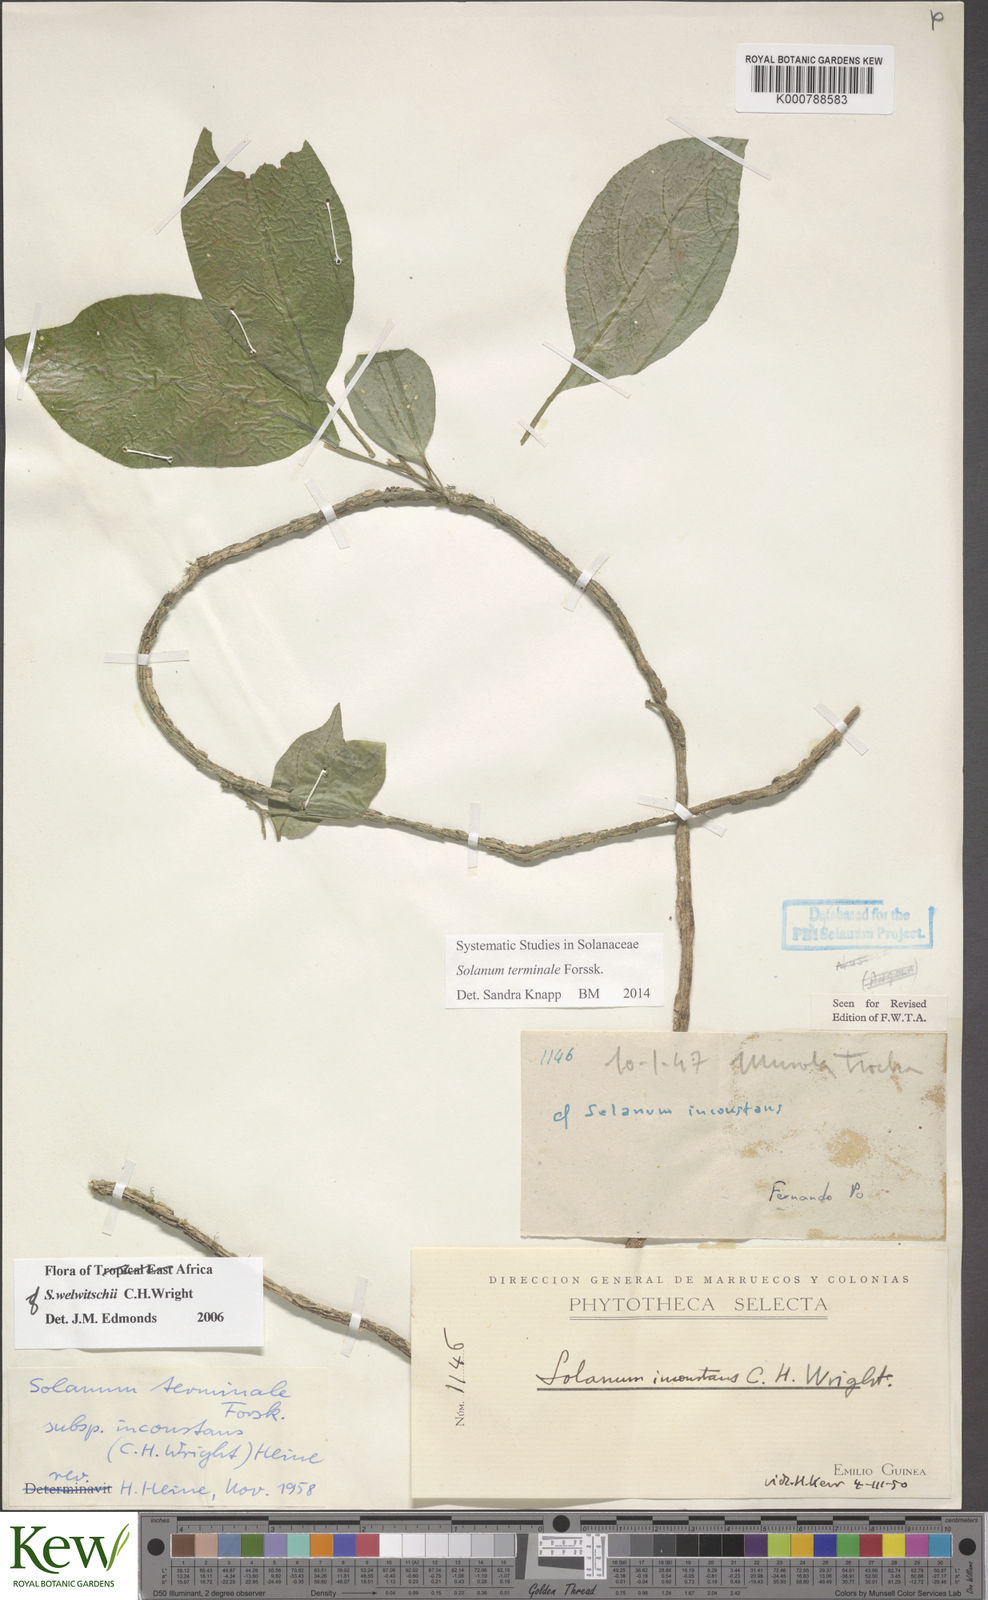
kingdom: Plantae
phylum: Tracheophyta
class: Magnoliopsida
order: Solanales
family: Solanaceae
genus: Solanum
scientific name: Solanum terminale
